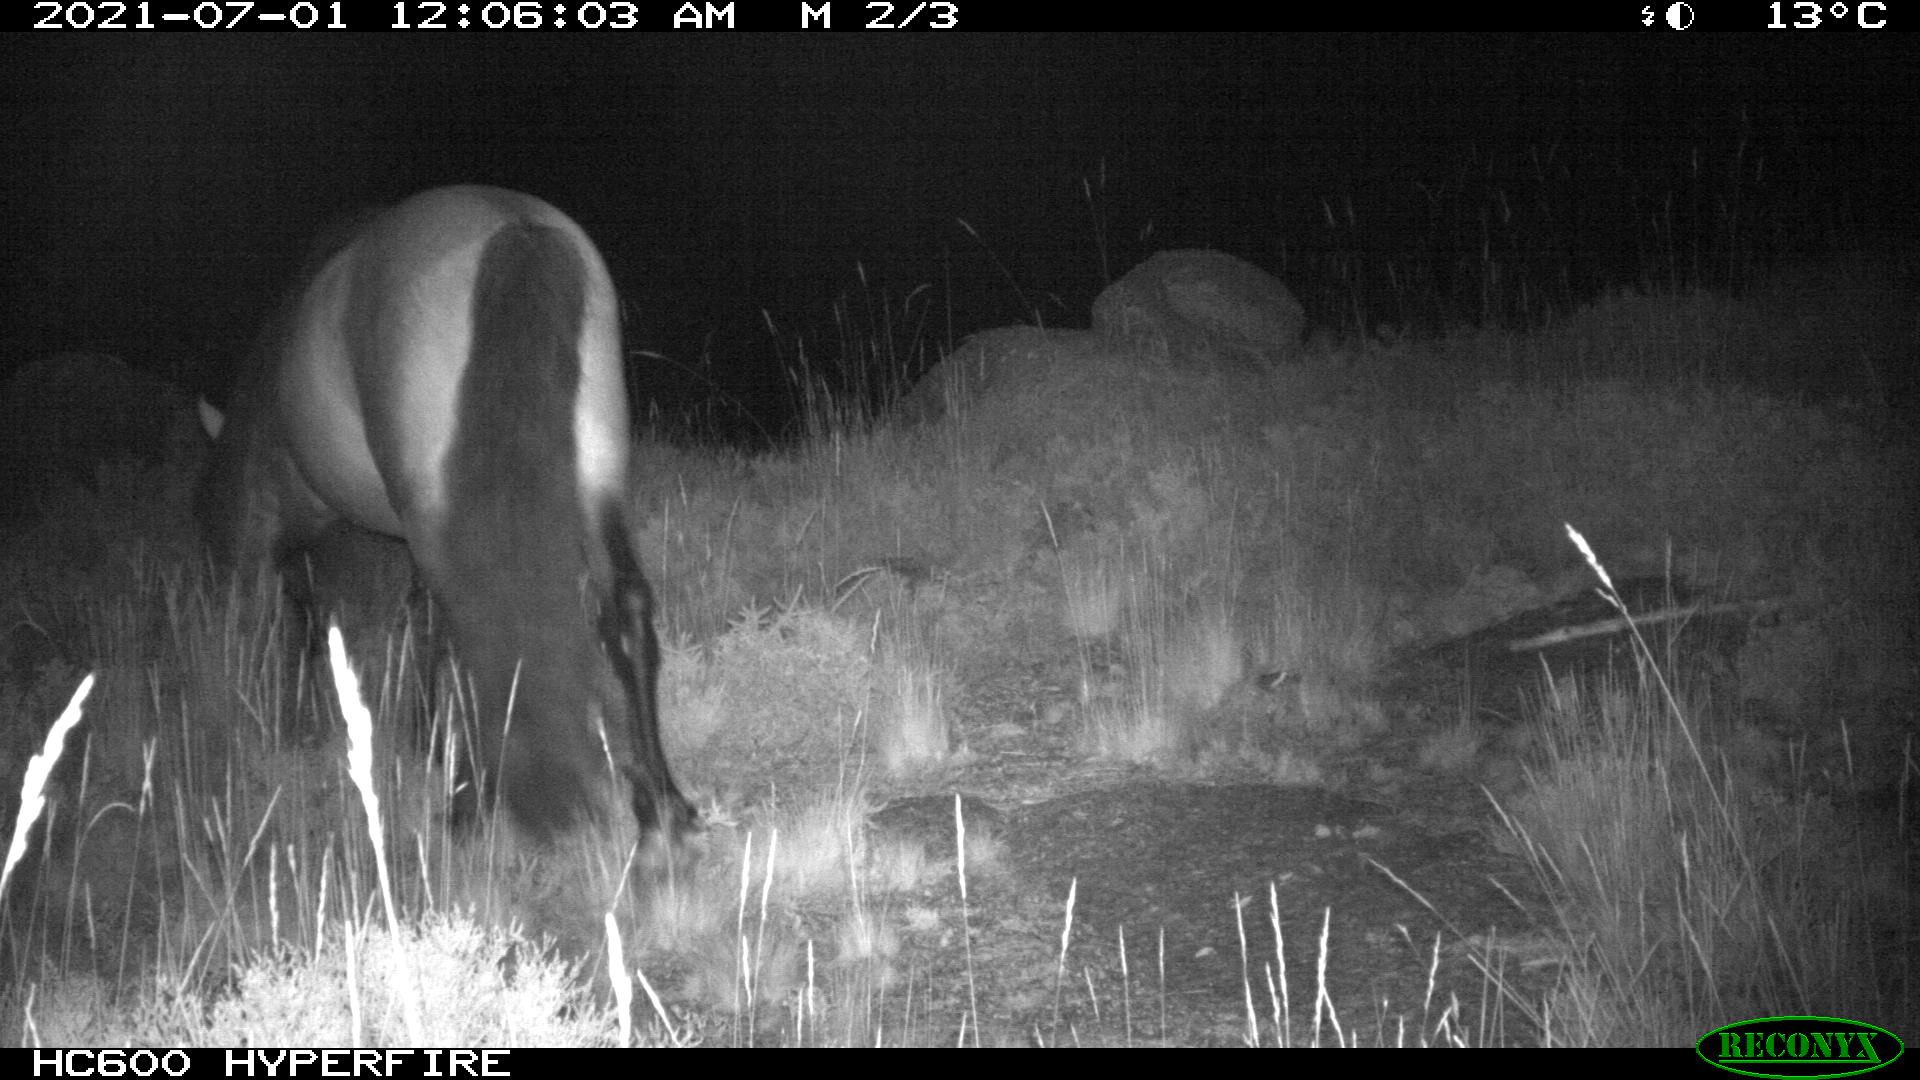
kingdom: Animalia
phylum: Chordata
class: Mammalia
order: Perissodactyla
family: Equidae
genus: Equus
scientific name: Equus caballus
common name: Horse
